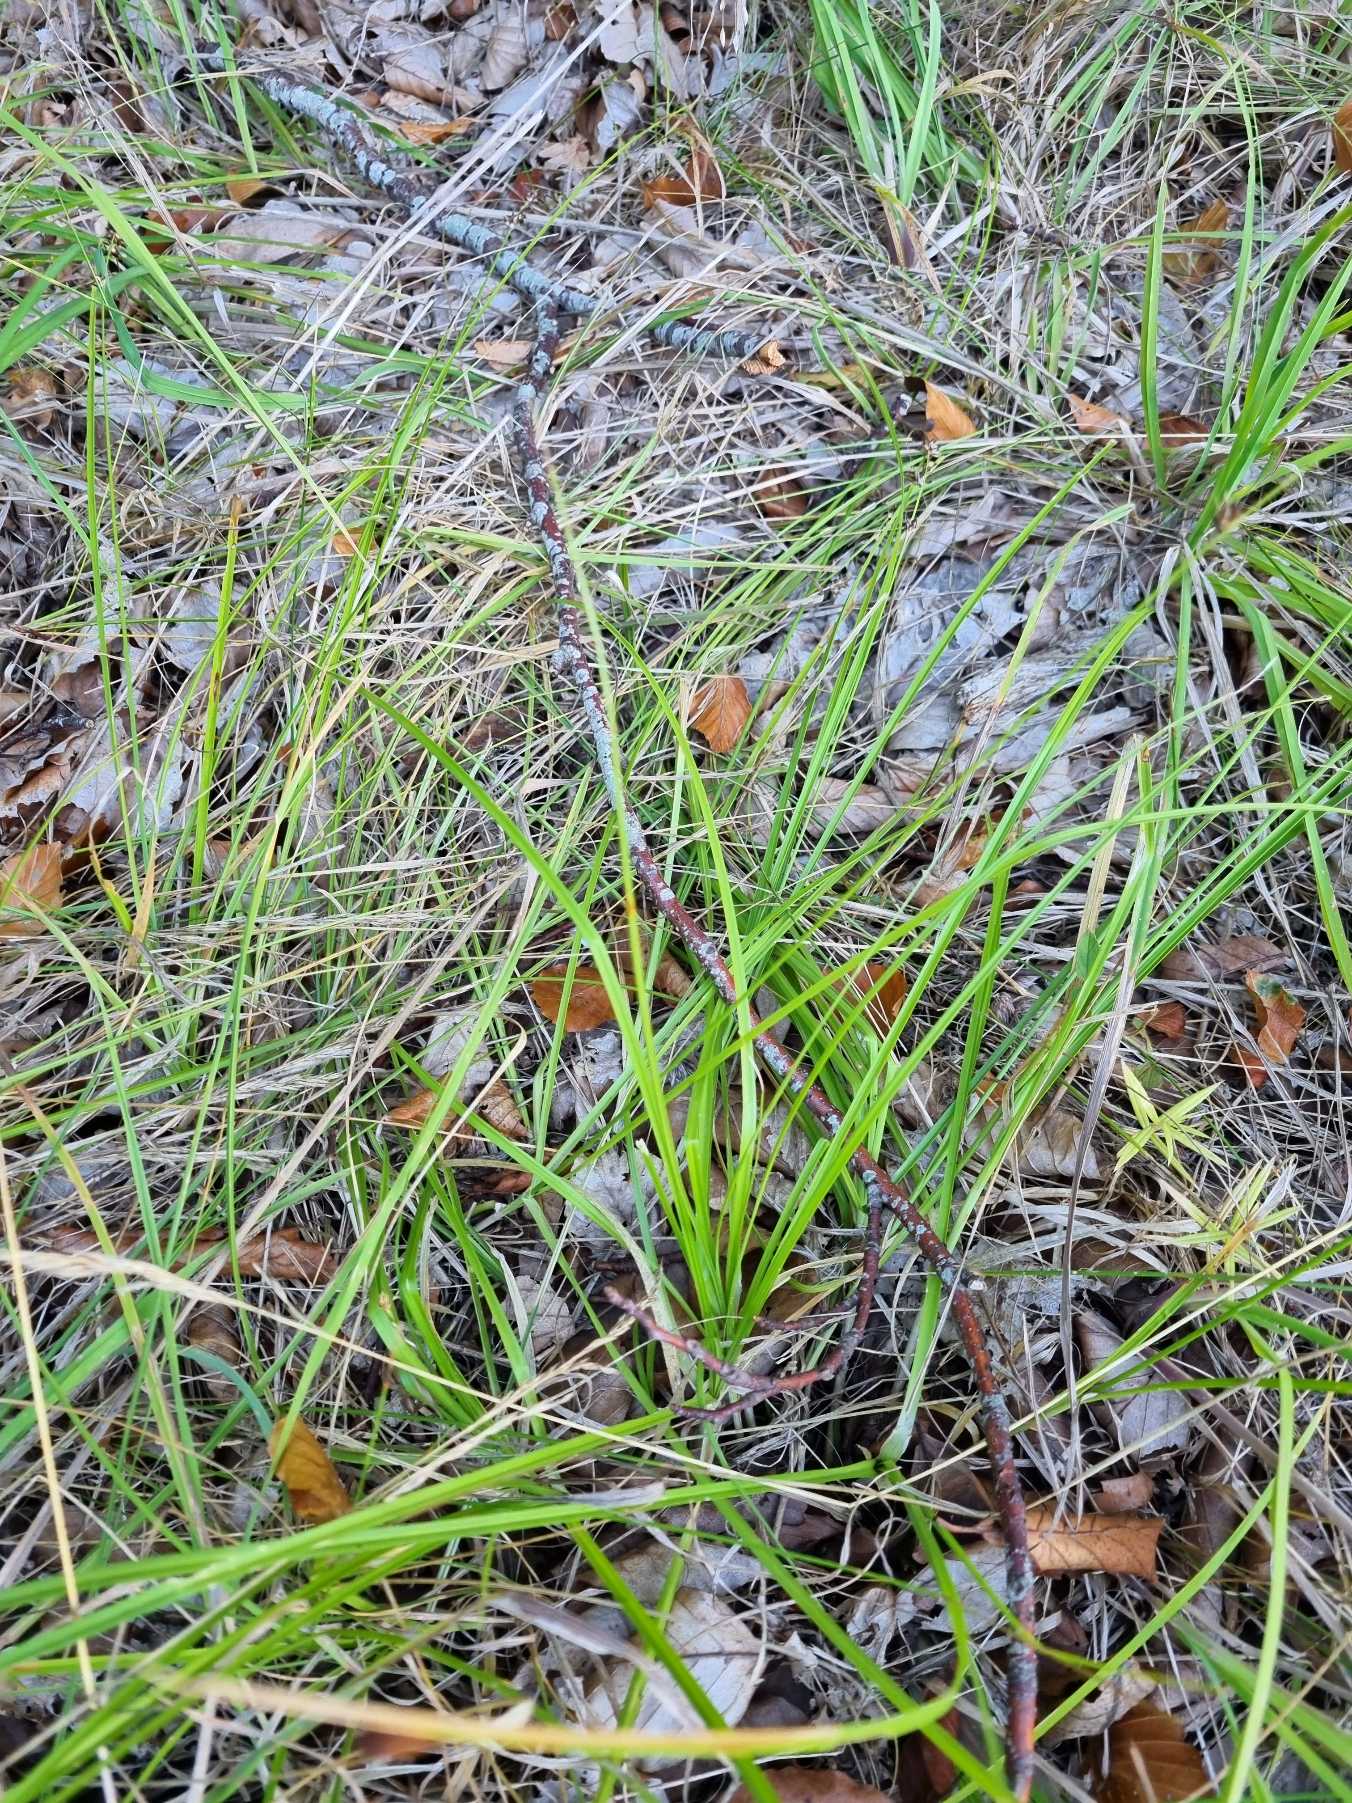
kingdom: Plantae
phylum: Tracheophyta
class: Liliopsida
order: Poales
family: Cyperaceae
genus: Carex
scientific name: Carex leersii
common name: Mellembrudt star (underart)
